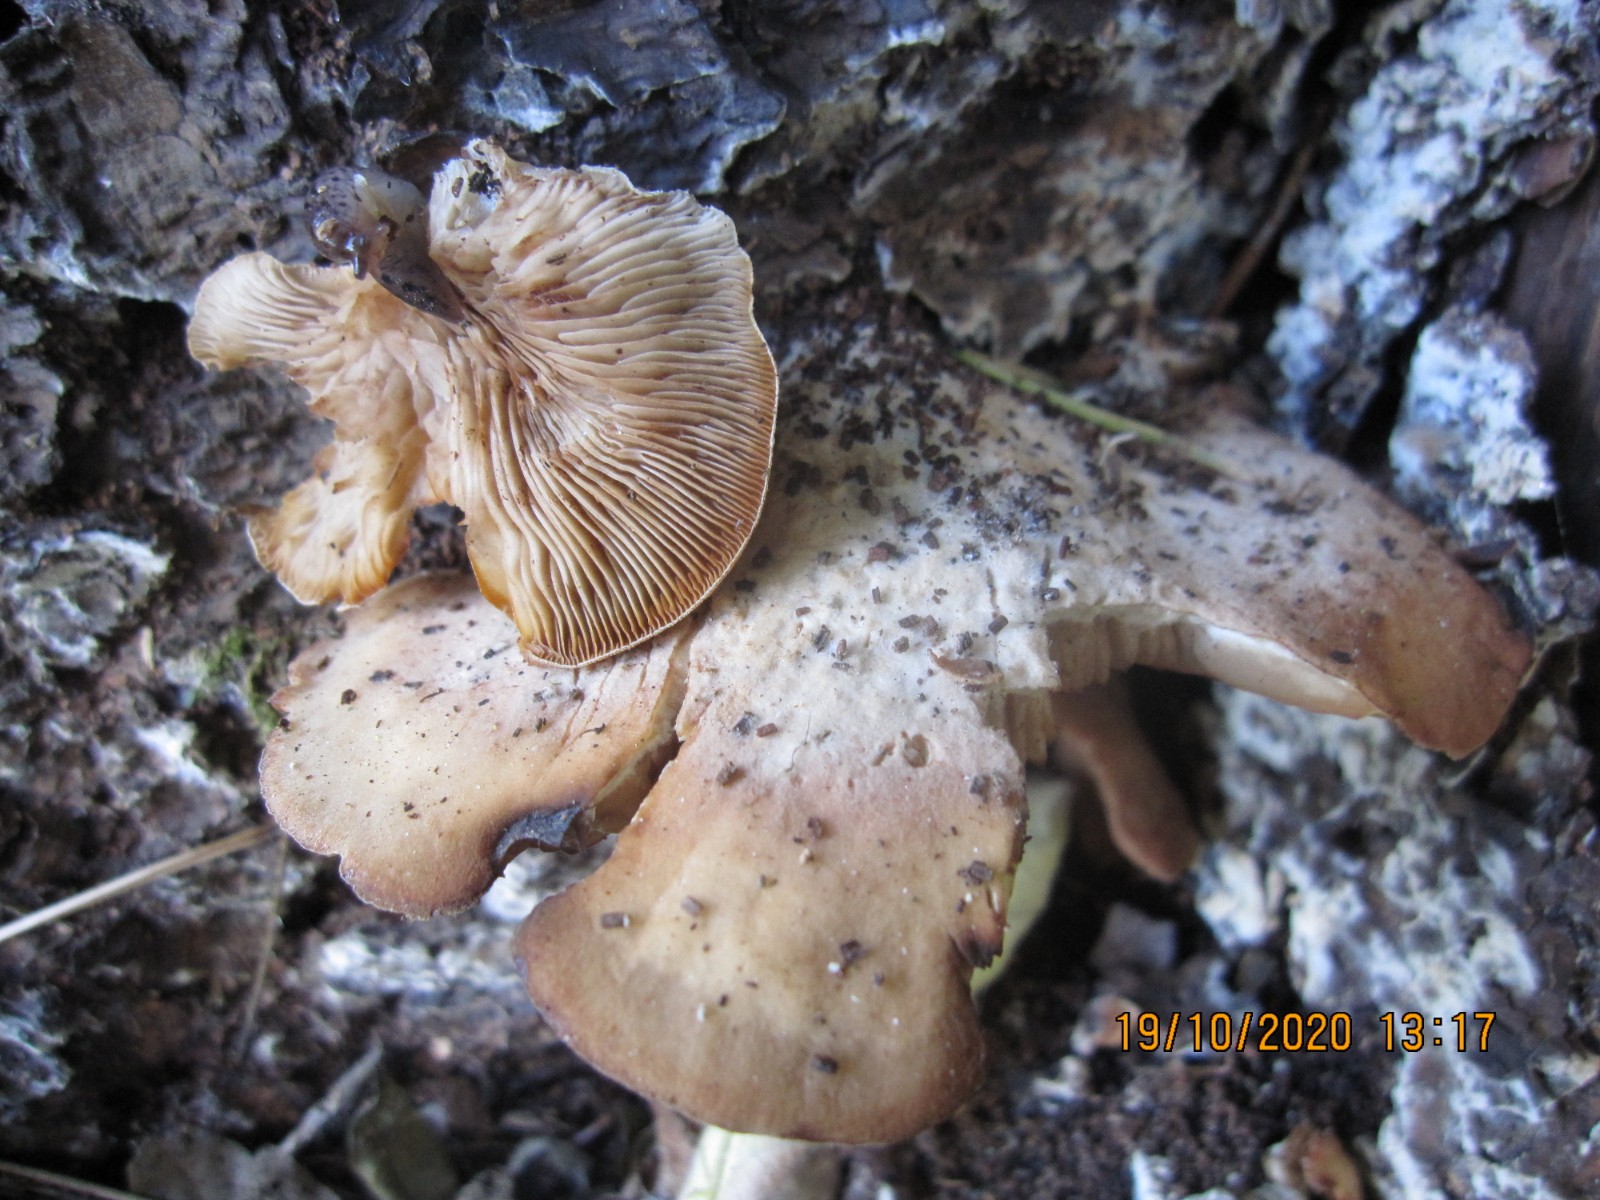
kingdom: Fungi
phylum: Basidiomycota
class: Agaricomycetes
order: Agaricales
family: Crepidotaceae
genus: Crepidotus
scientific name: Crepidotus stenocystis
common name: nåletræs-muslingesvamp
